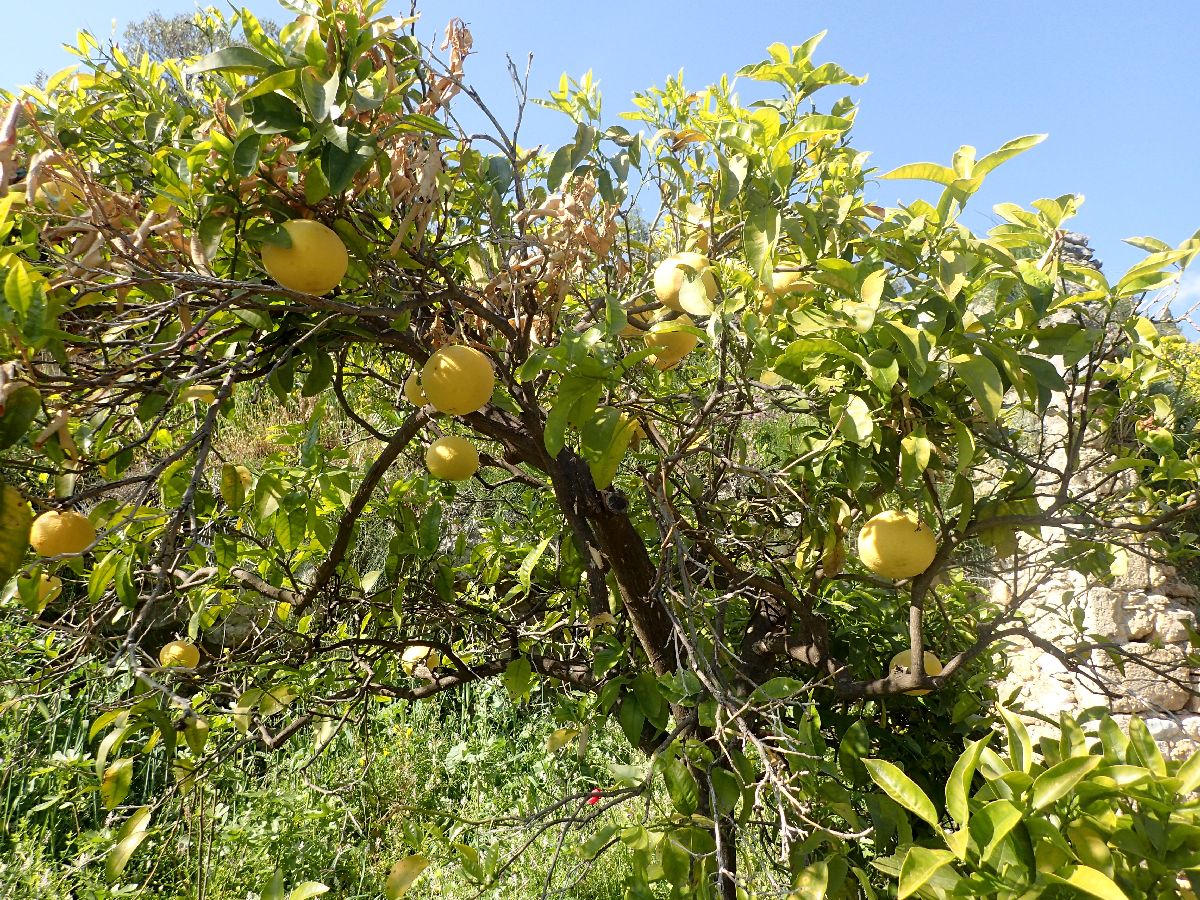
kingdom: Plantae
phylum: Tracheophyta
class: Magnoliopsida
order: Sapindales
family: Rutaceae
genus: Citrus
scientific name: Citrus limon
